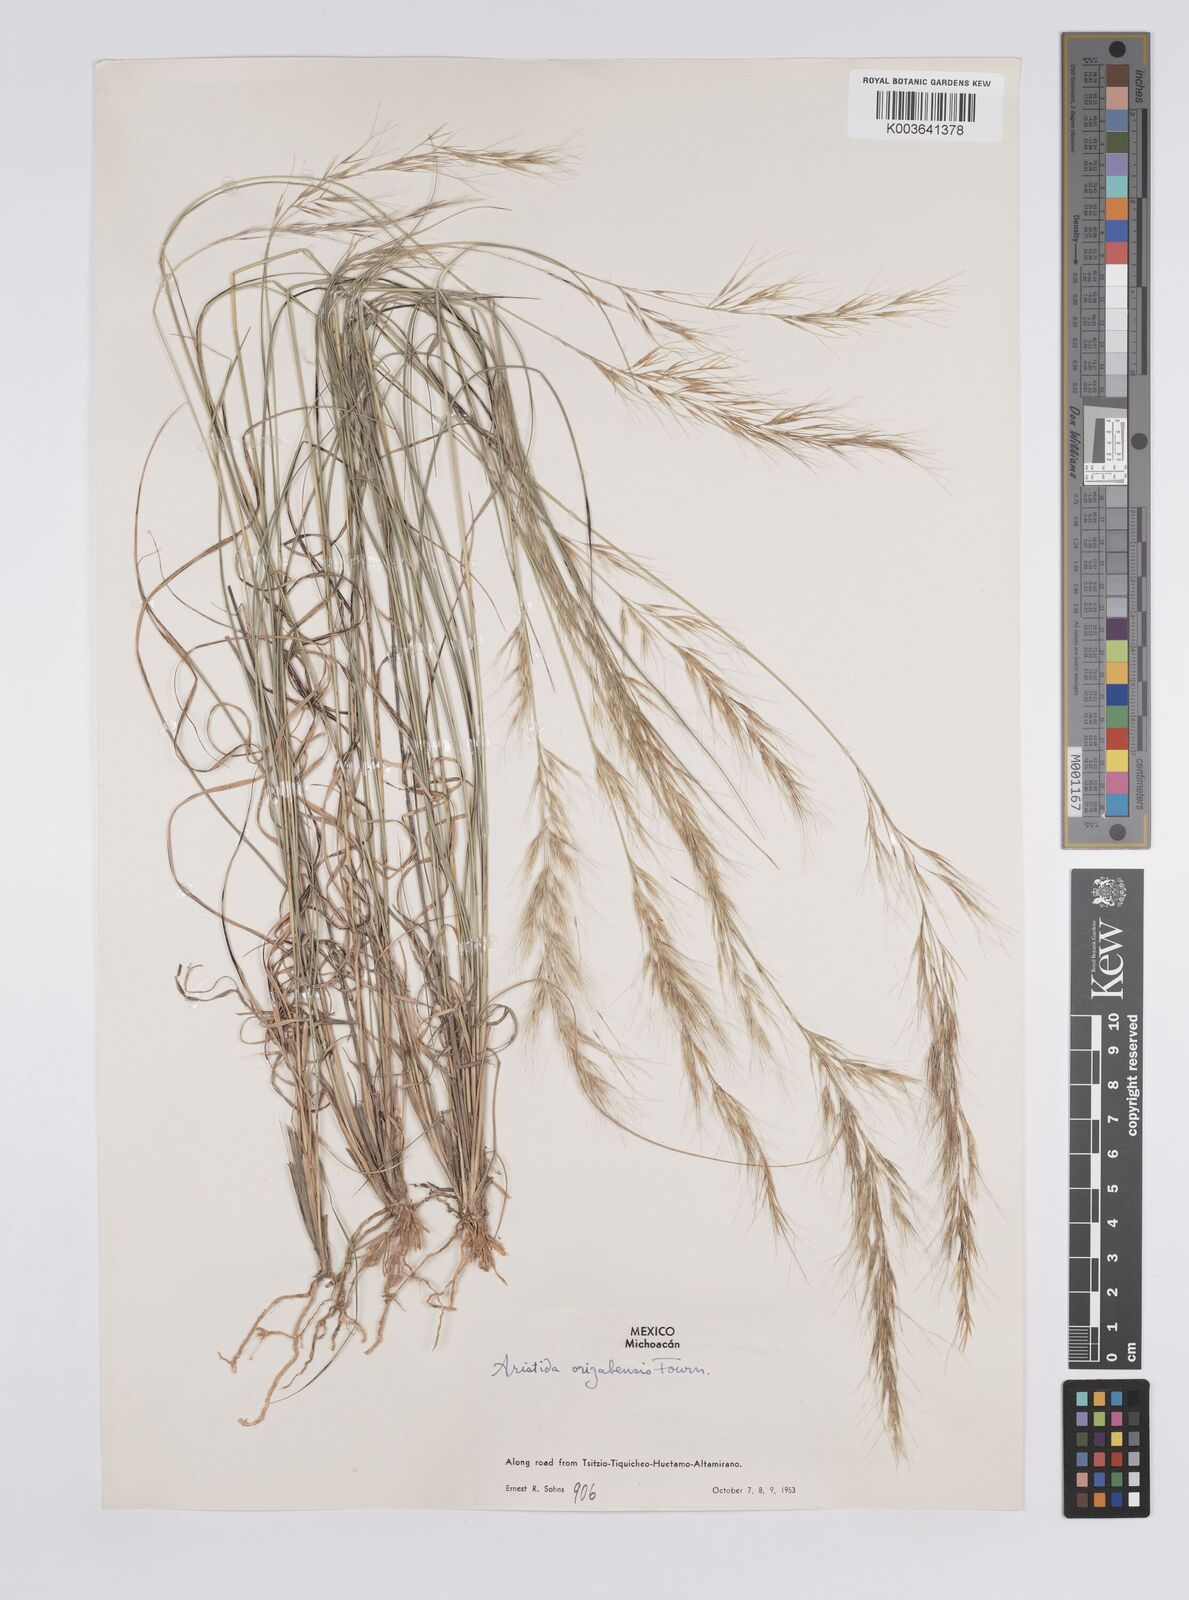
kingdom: Plantae
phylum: Tracheophyta
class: Liliopsida
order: Poales
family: Poaceae
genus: Aristida
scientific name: Aristida gibbosa
